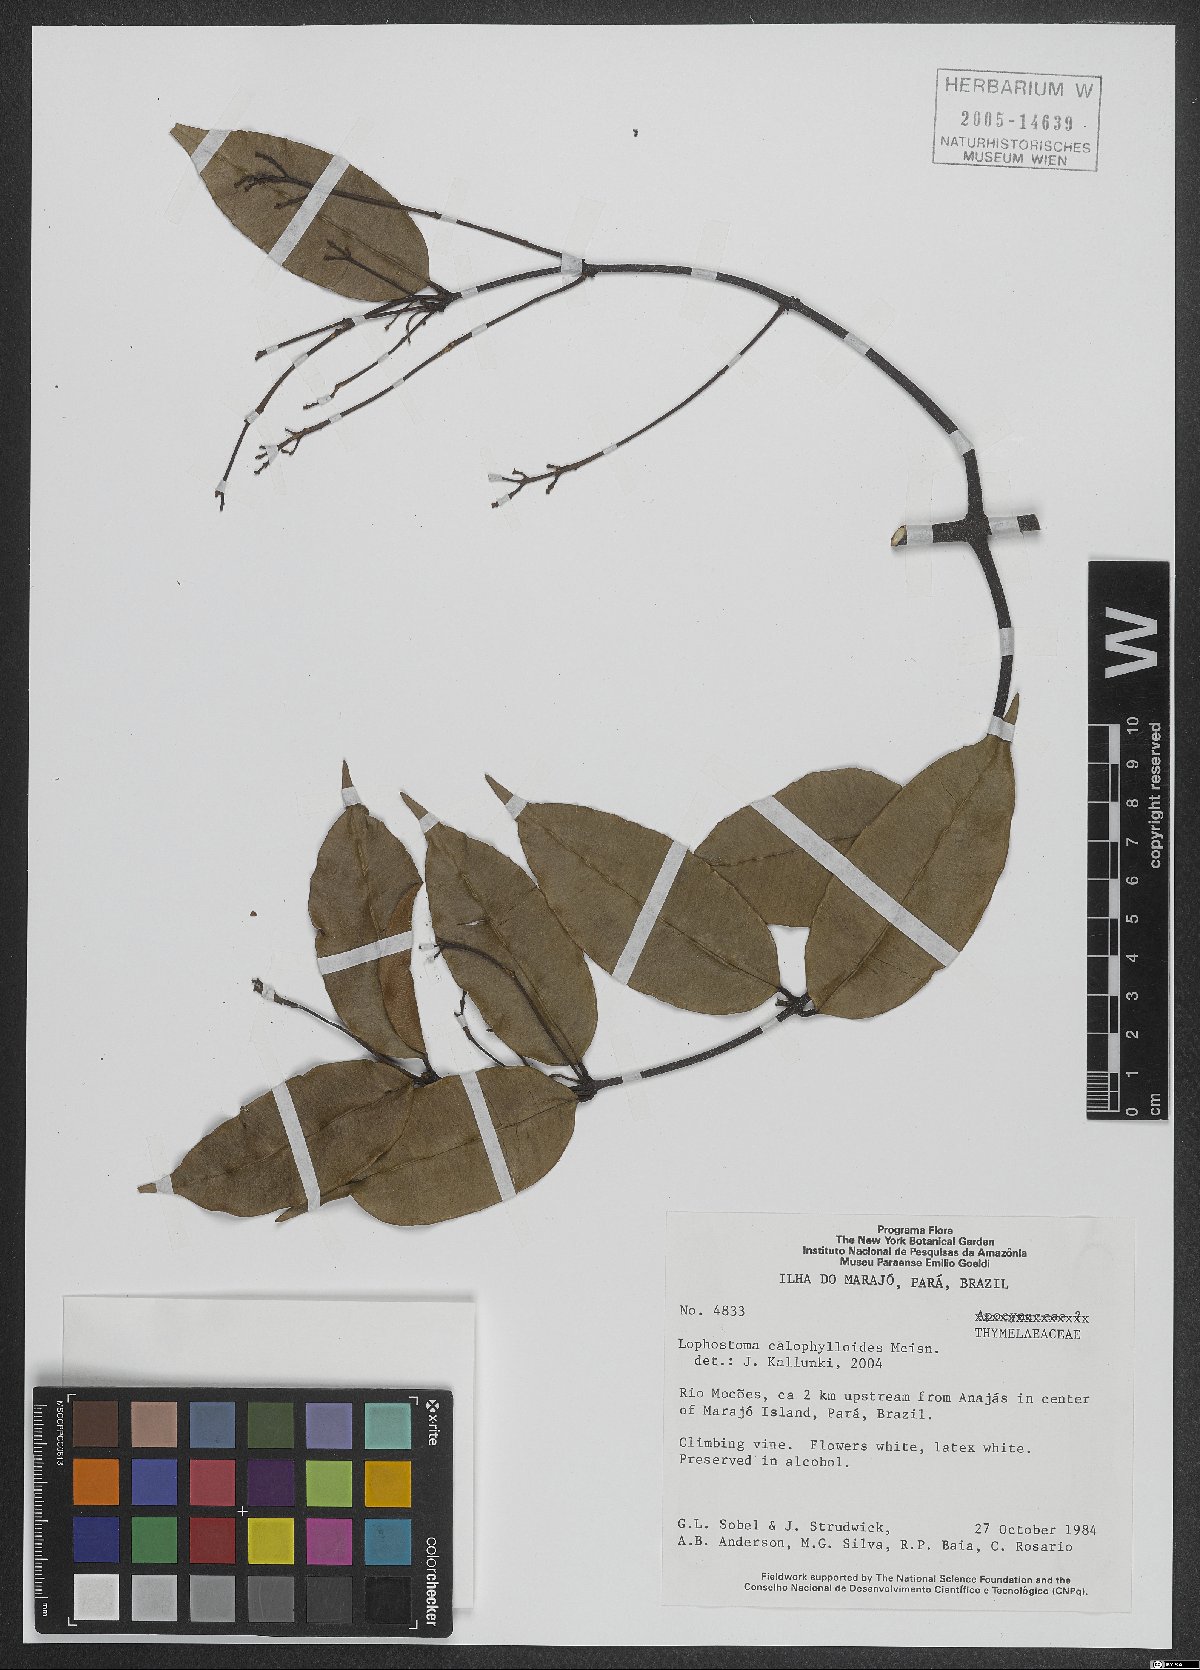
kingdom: Plantae
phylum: Tracheophyta
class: Magnoliopsida
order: Malvales
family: Thymelaeaceae
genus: Lophostoma
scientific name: Lophostoma calophylloides
